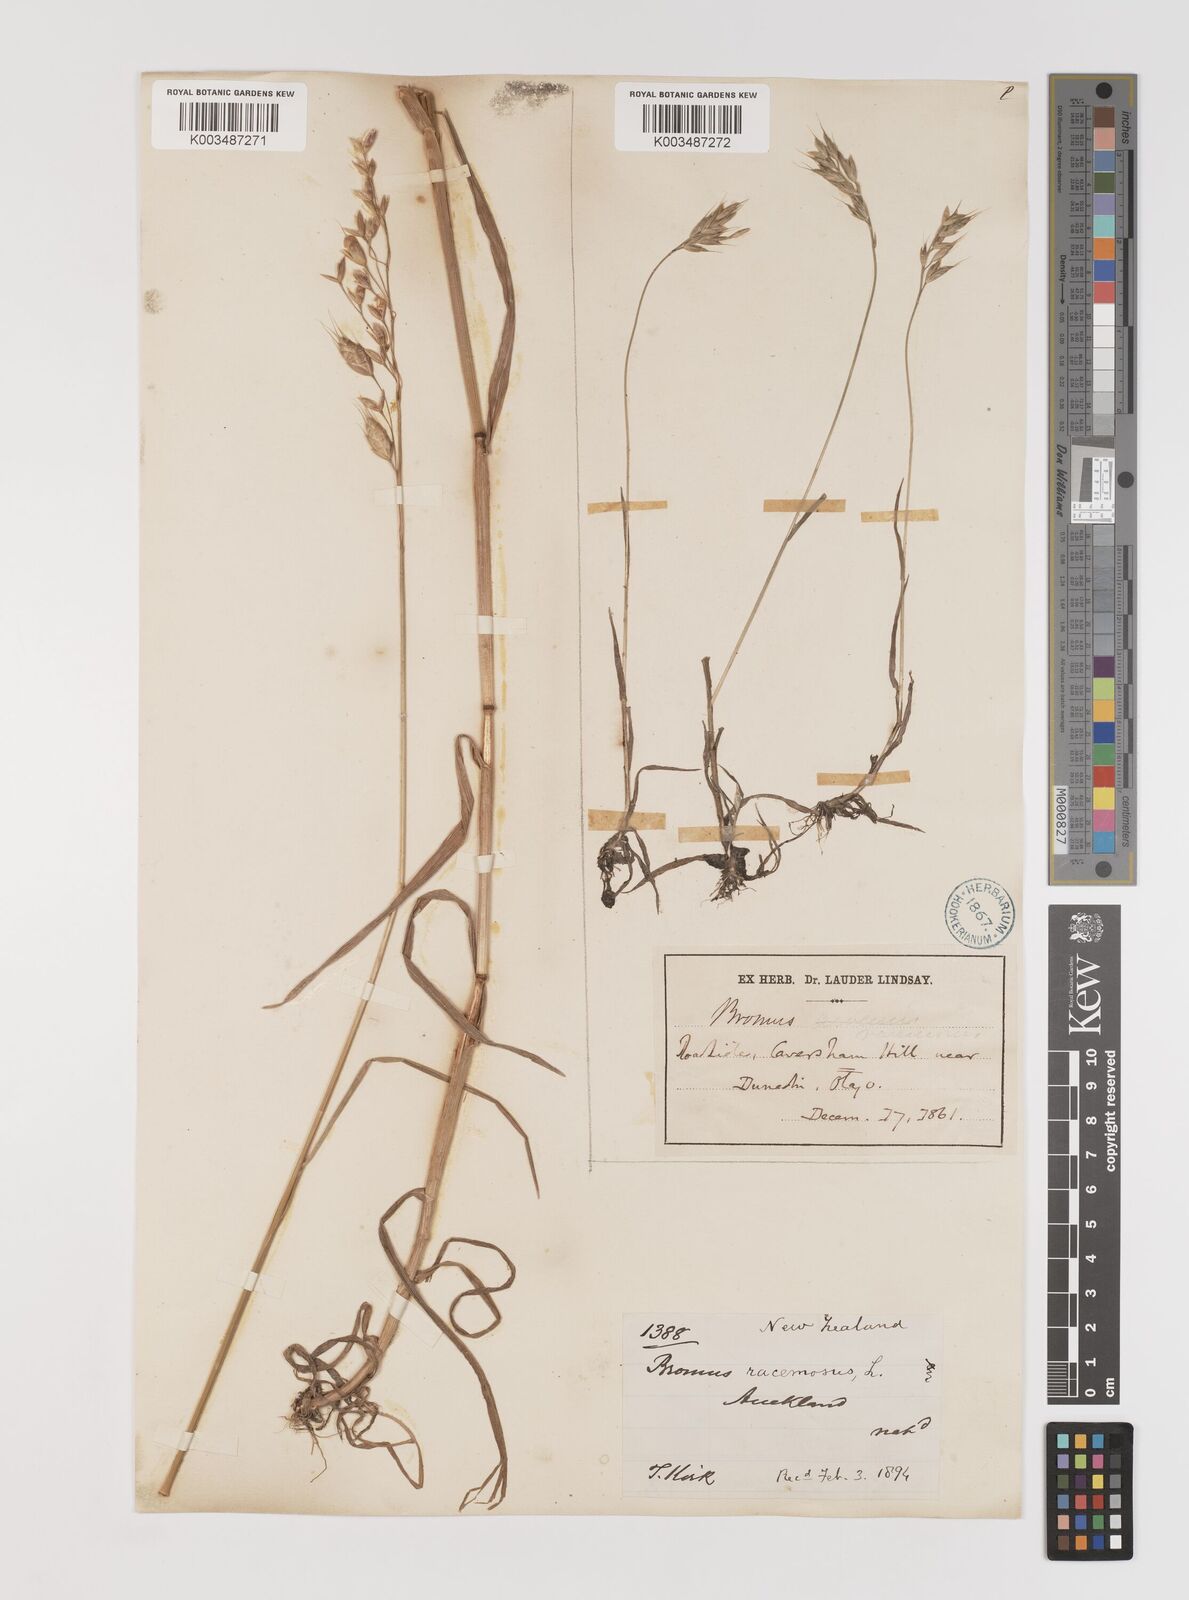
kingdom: Plantae
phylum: Tracheophyta
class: Liliopsida
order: Poales
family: Poaceae
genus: Bromus
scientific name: Bromus secalinus
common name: Rye brome
